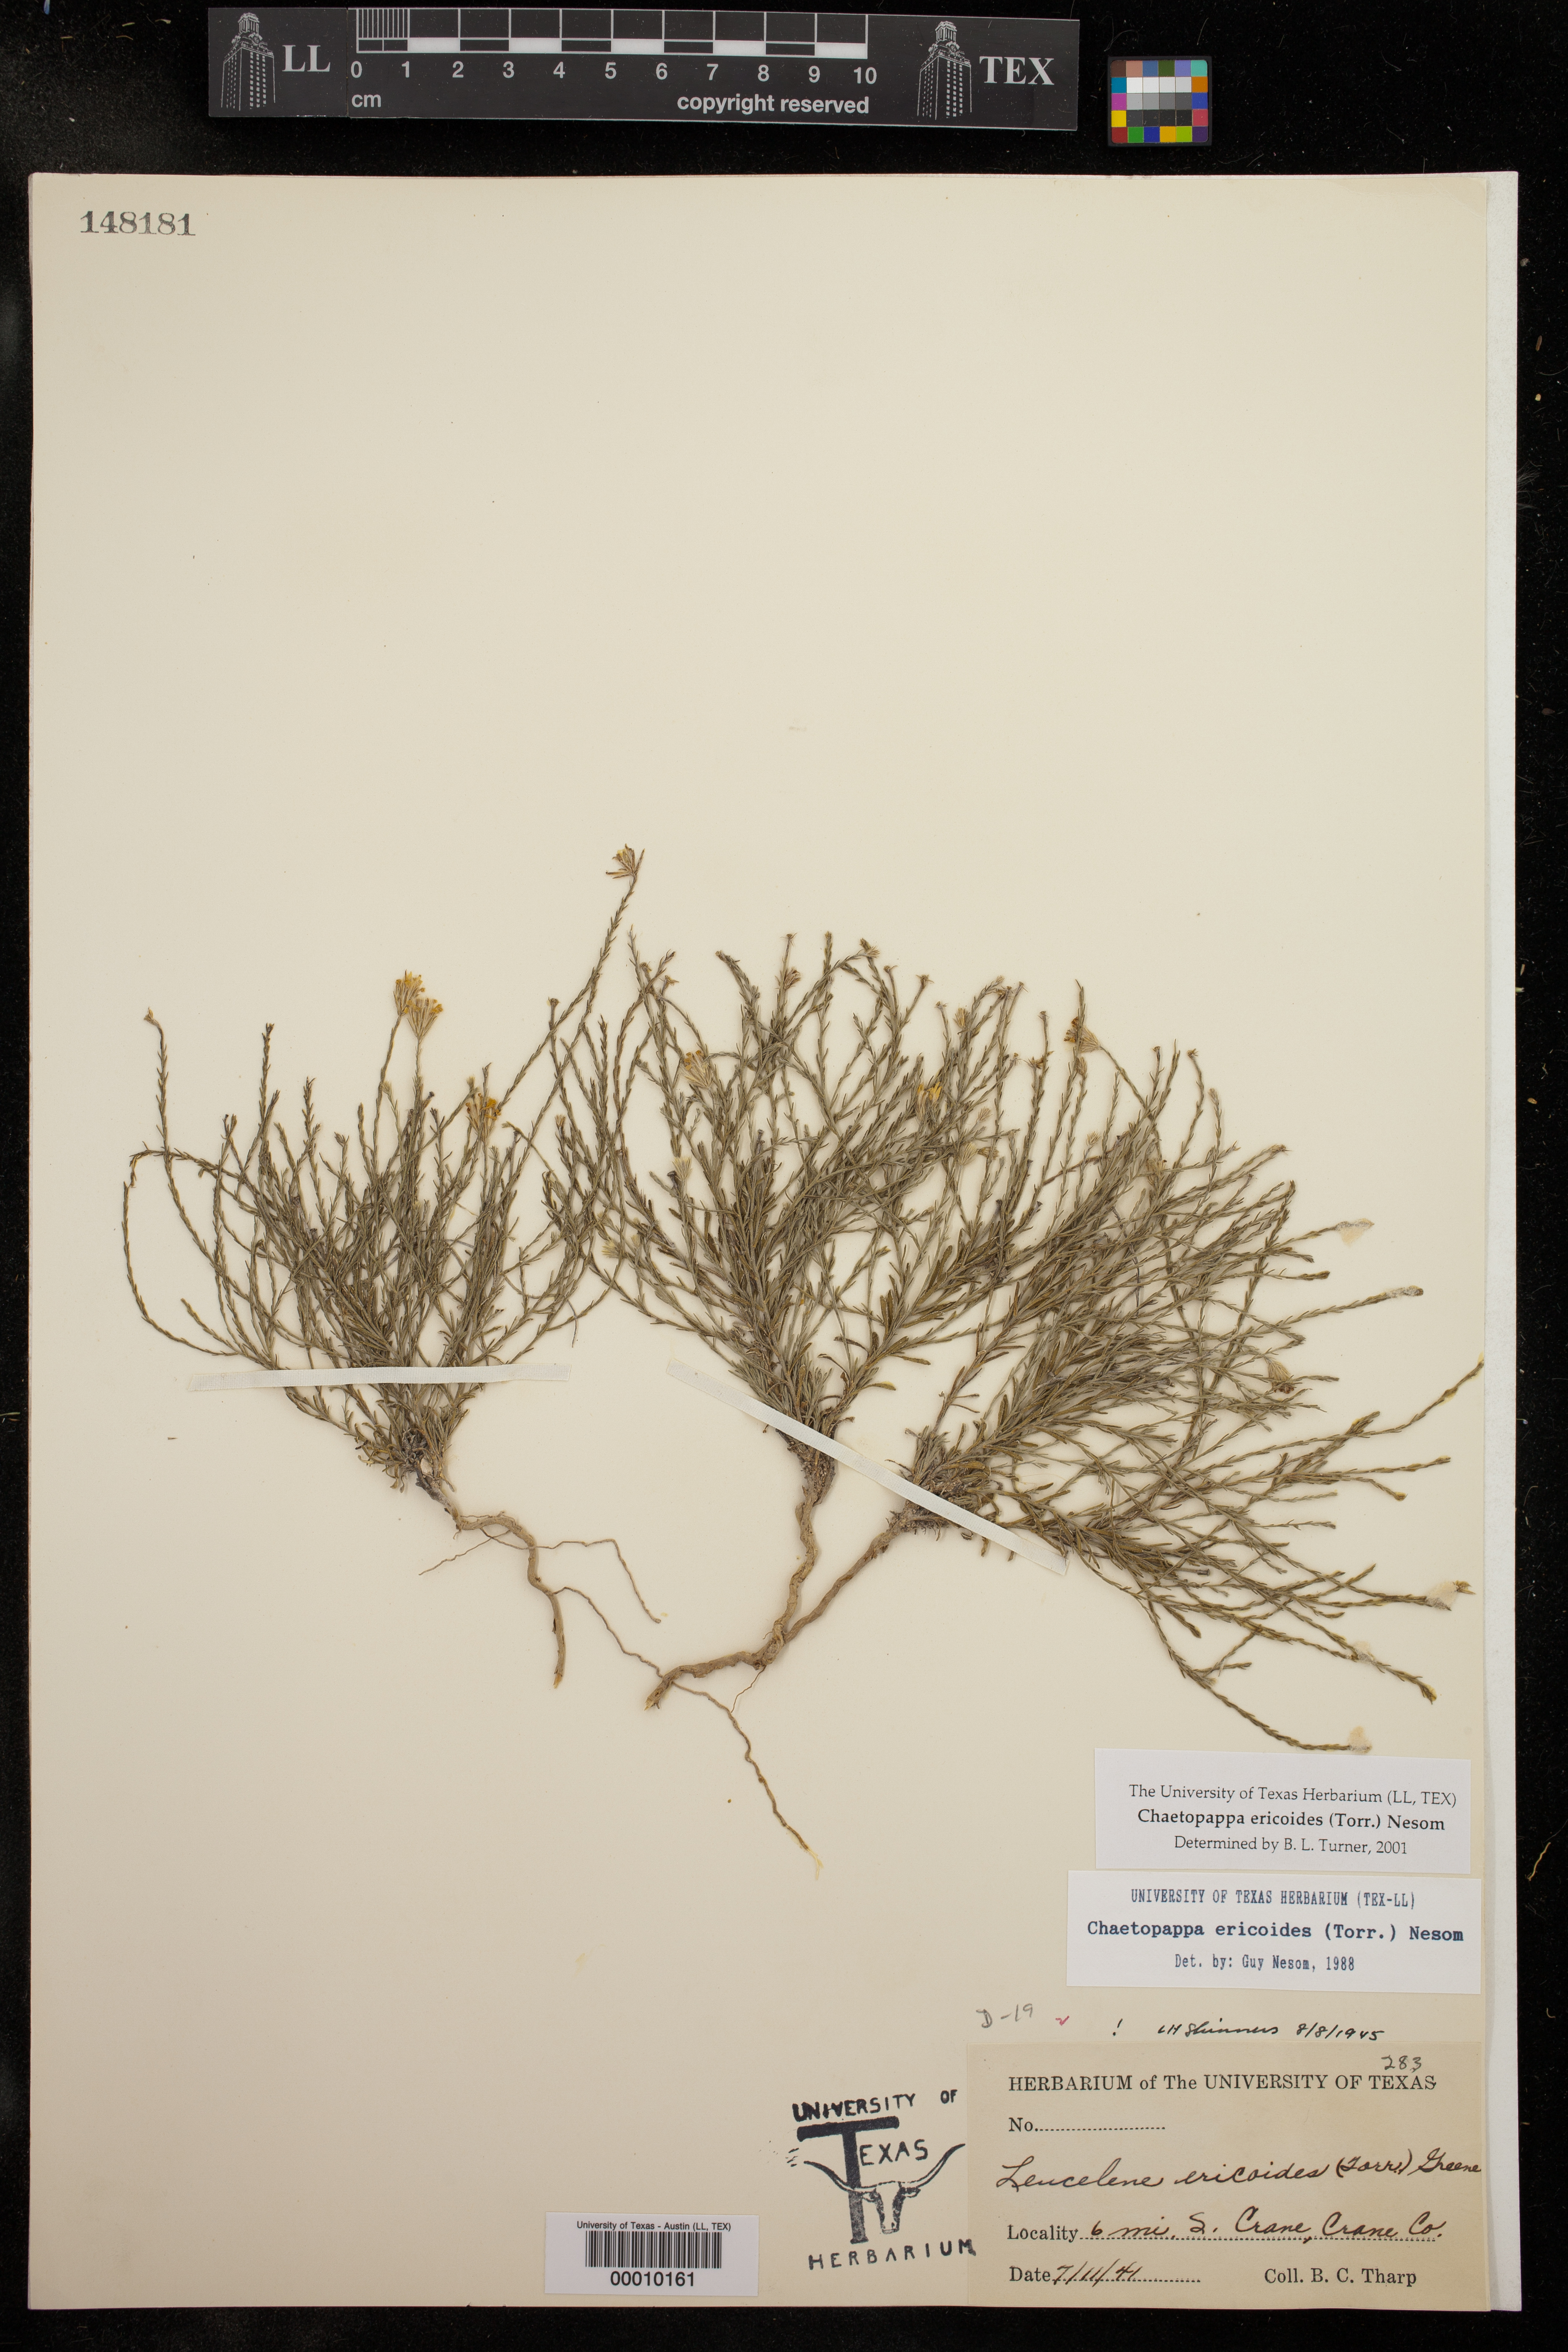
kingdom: Plantae
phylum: Tracheophyta
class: Magnoliopsida
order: Asterales
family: Asteraceae
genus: Chaetopappa
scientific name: Chaetopappa ericoides
